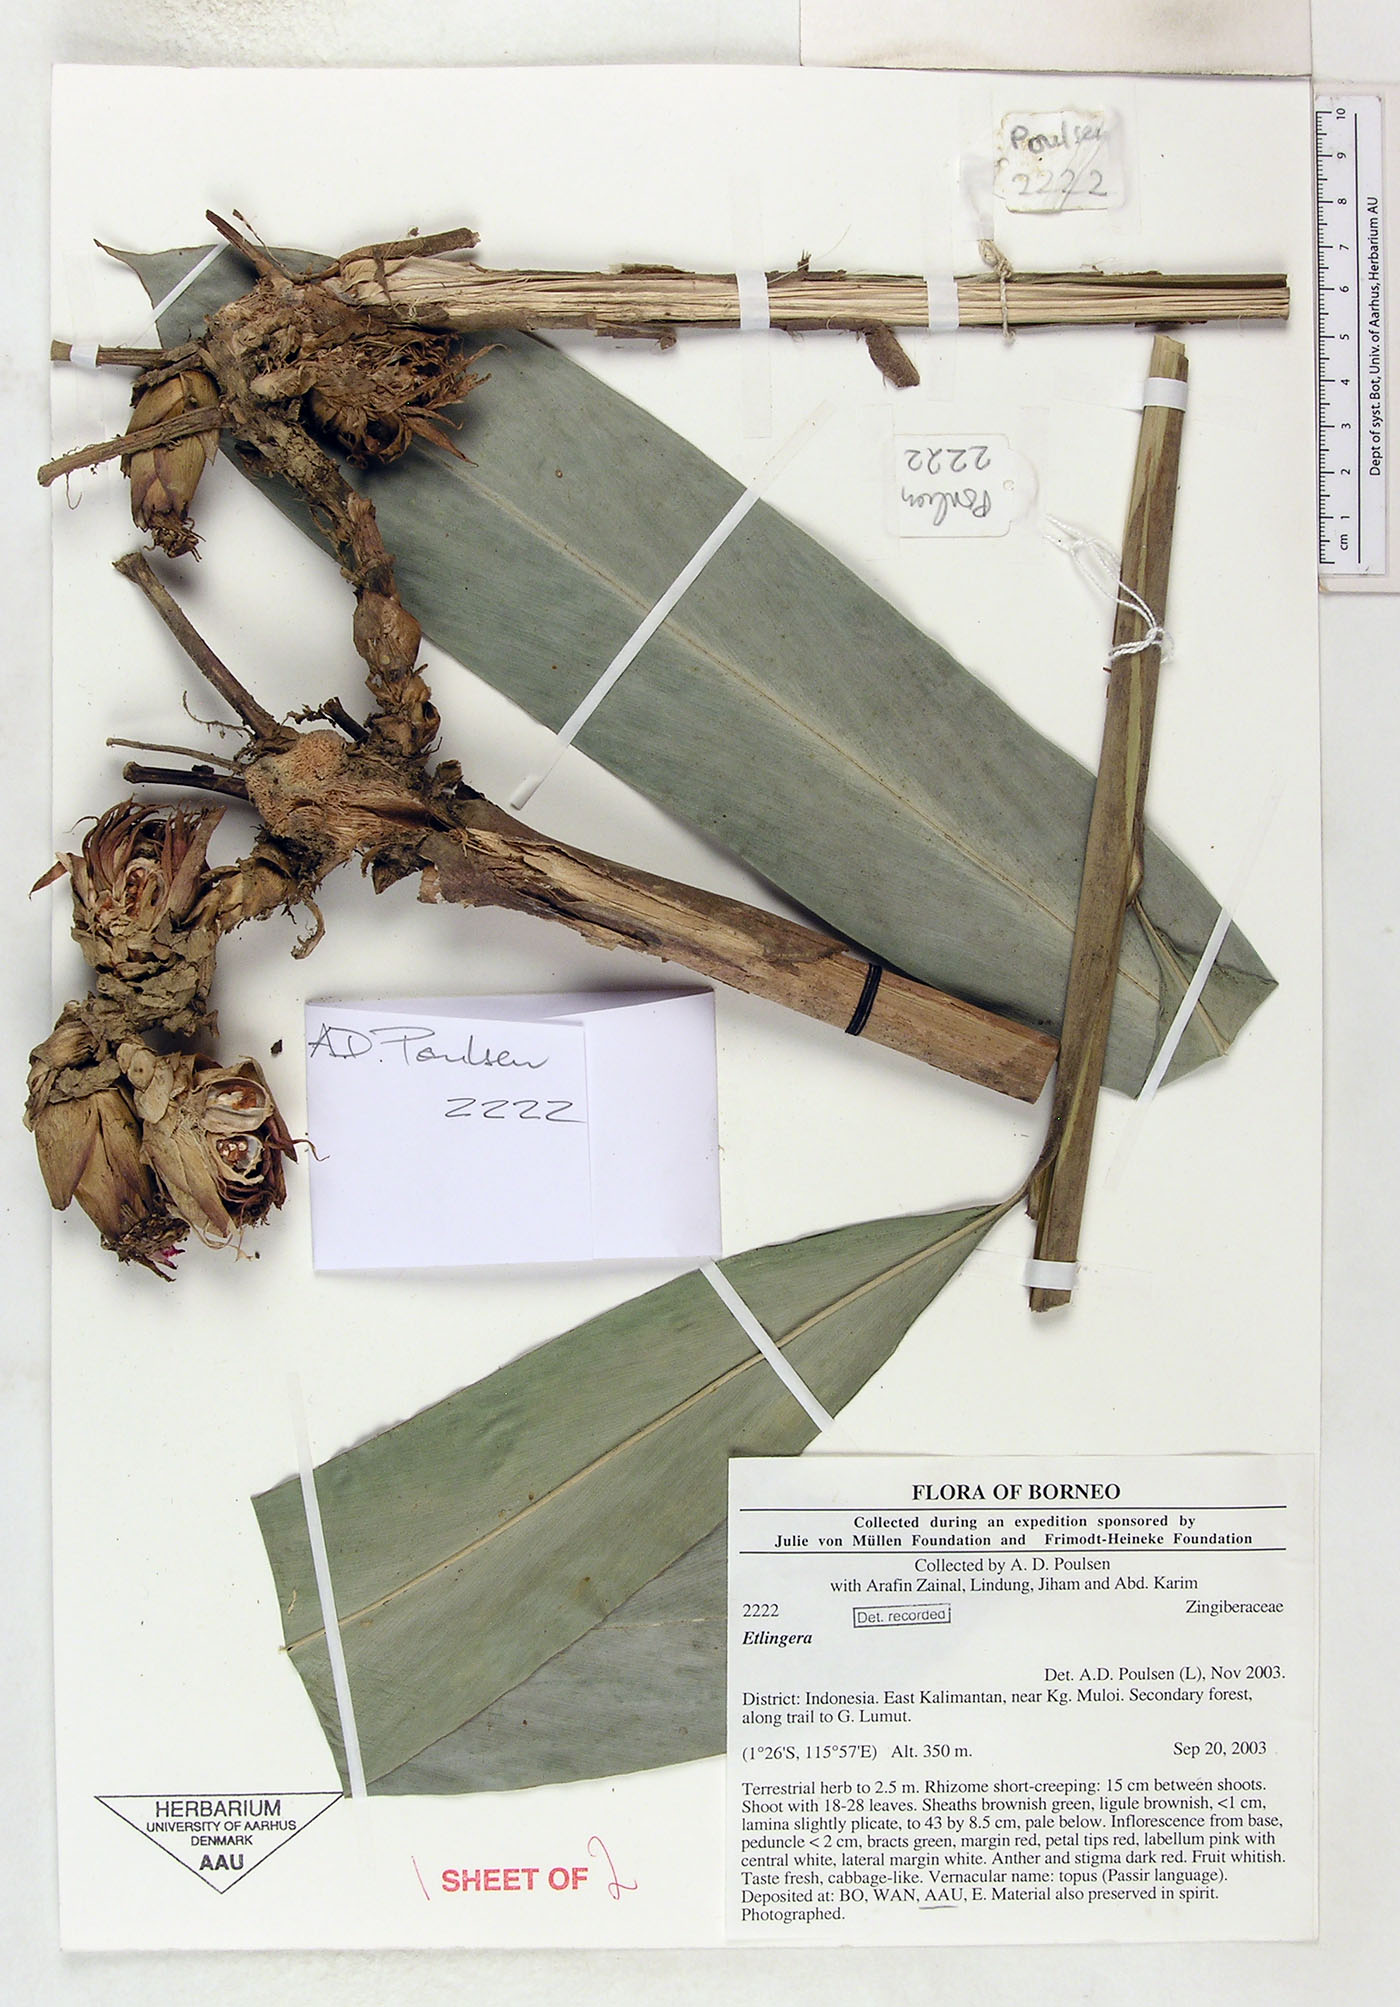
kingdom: Plantae
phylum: Tracheophyta
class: Liliopsida
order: Zingiberales
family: Zingiberaceae
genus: Etlingera
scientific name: Etlingera
